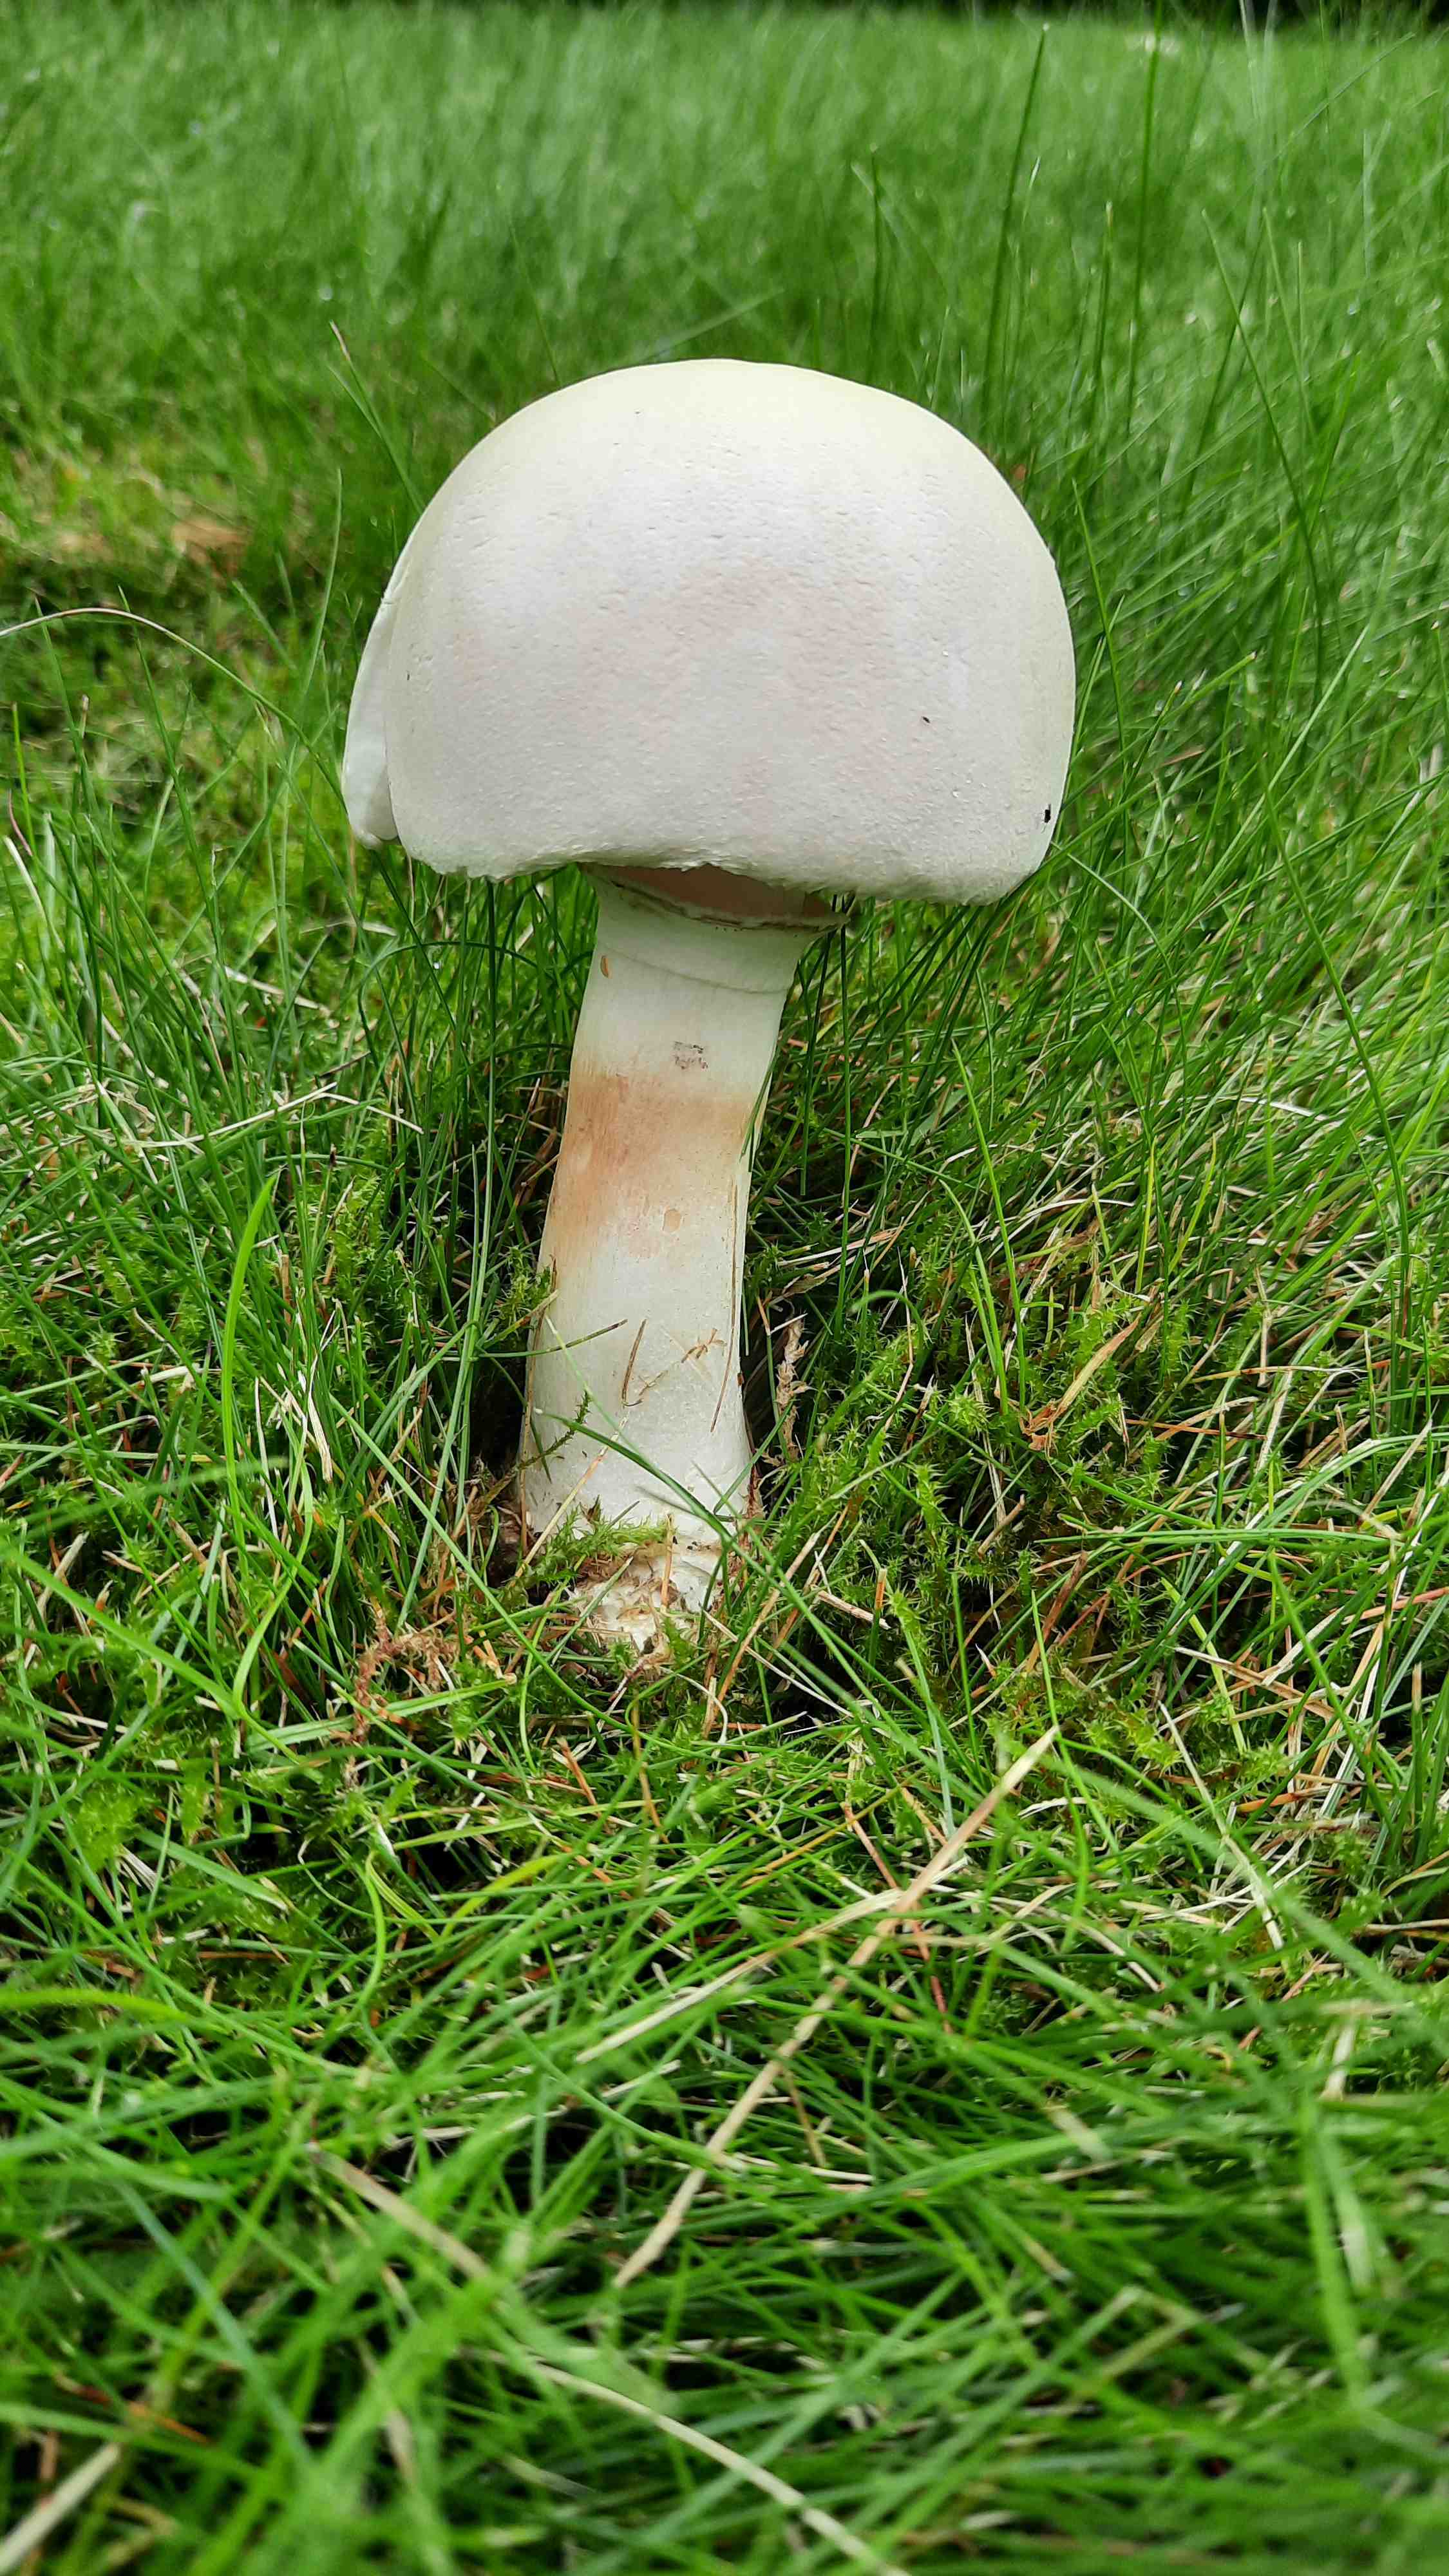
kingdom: Fungi
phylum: Basidiomycota
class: Agaricomycetes
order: Agaricales
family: Agaricaceae
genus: Leucoagaricus
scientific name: Leucoagaricus leucothites
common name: rosabladet silkehat
